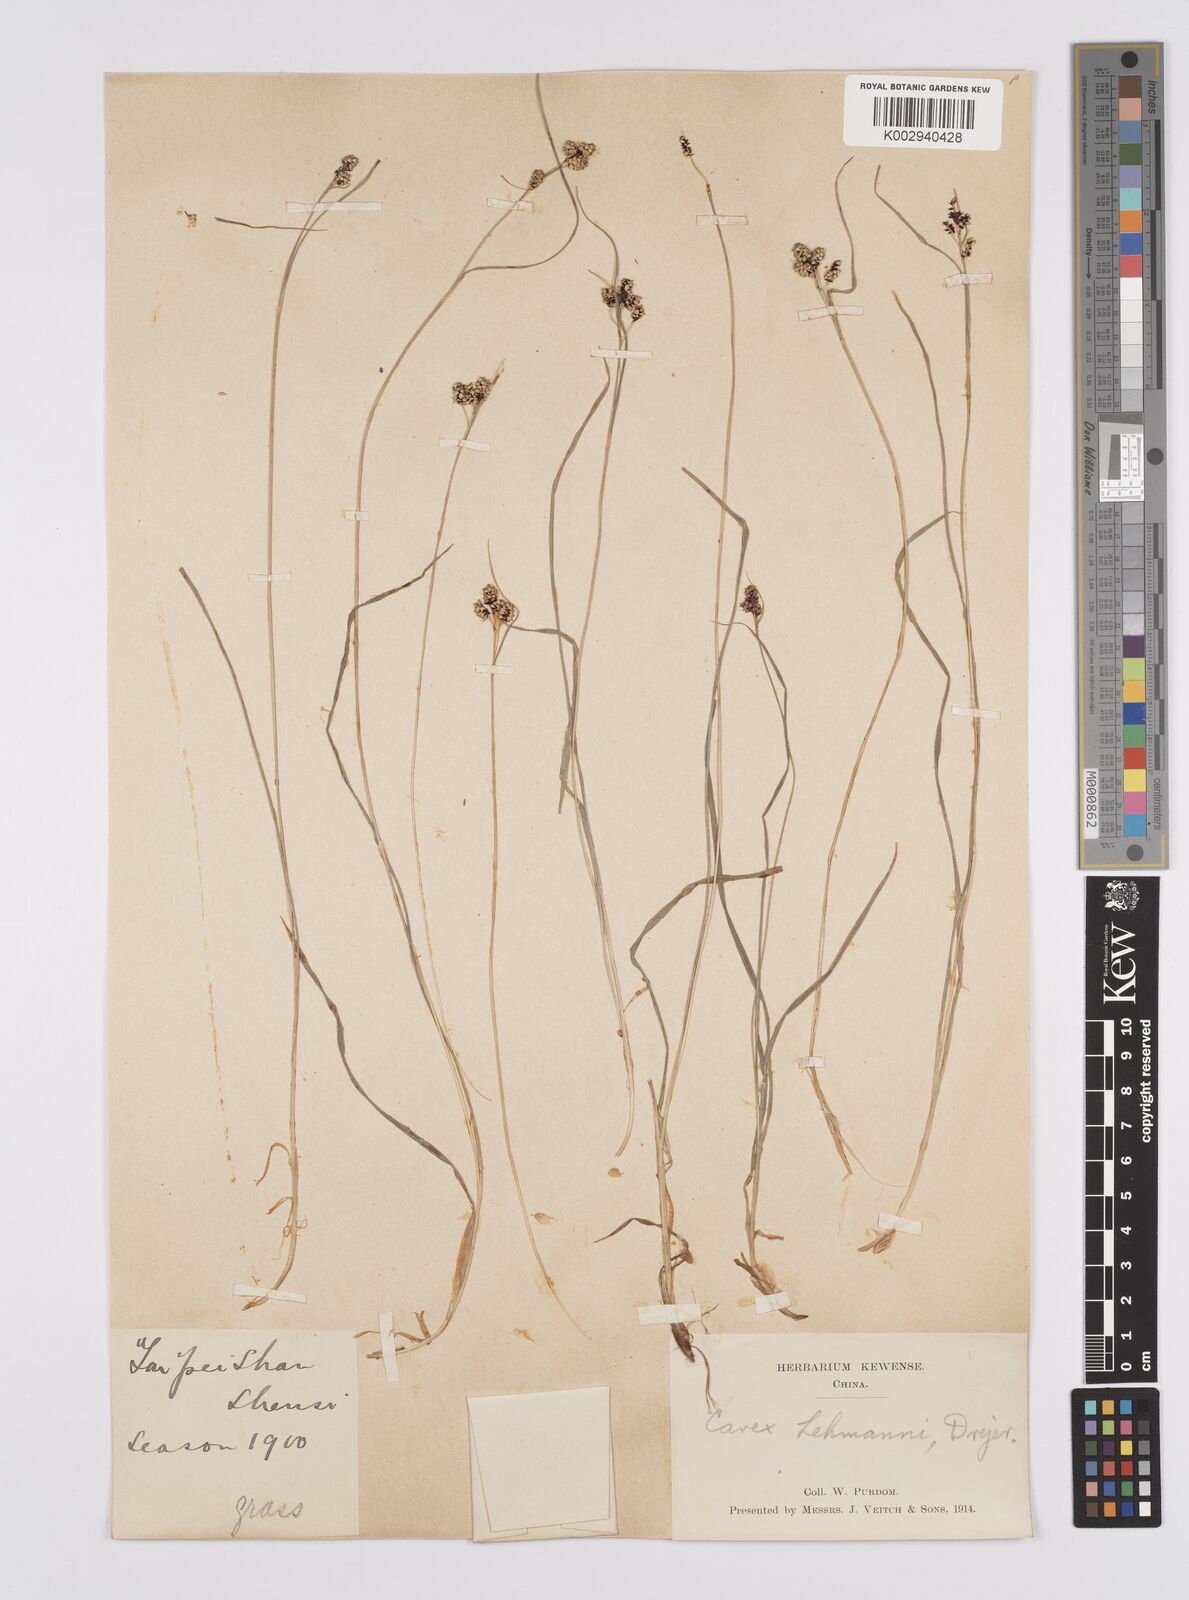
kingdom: Plantae
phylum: Tracheophyta
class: Liliopsida
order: Poales
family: Cyperaceae
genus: Carex
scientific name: Carex lehmannii
